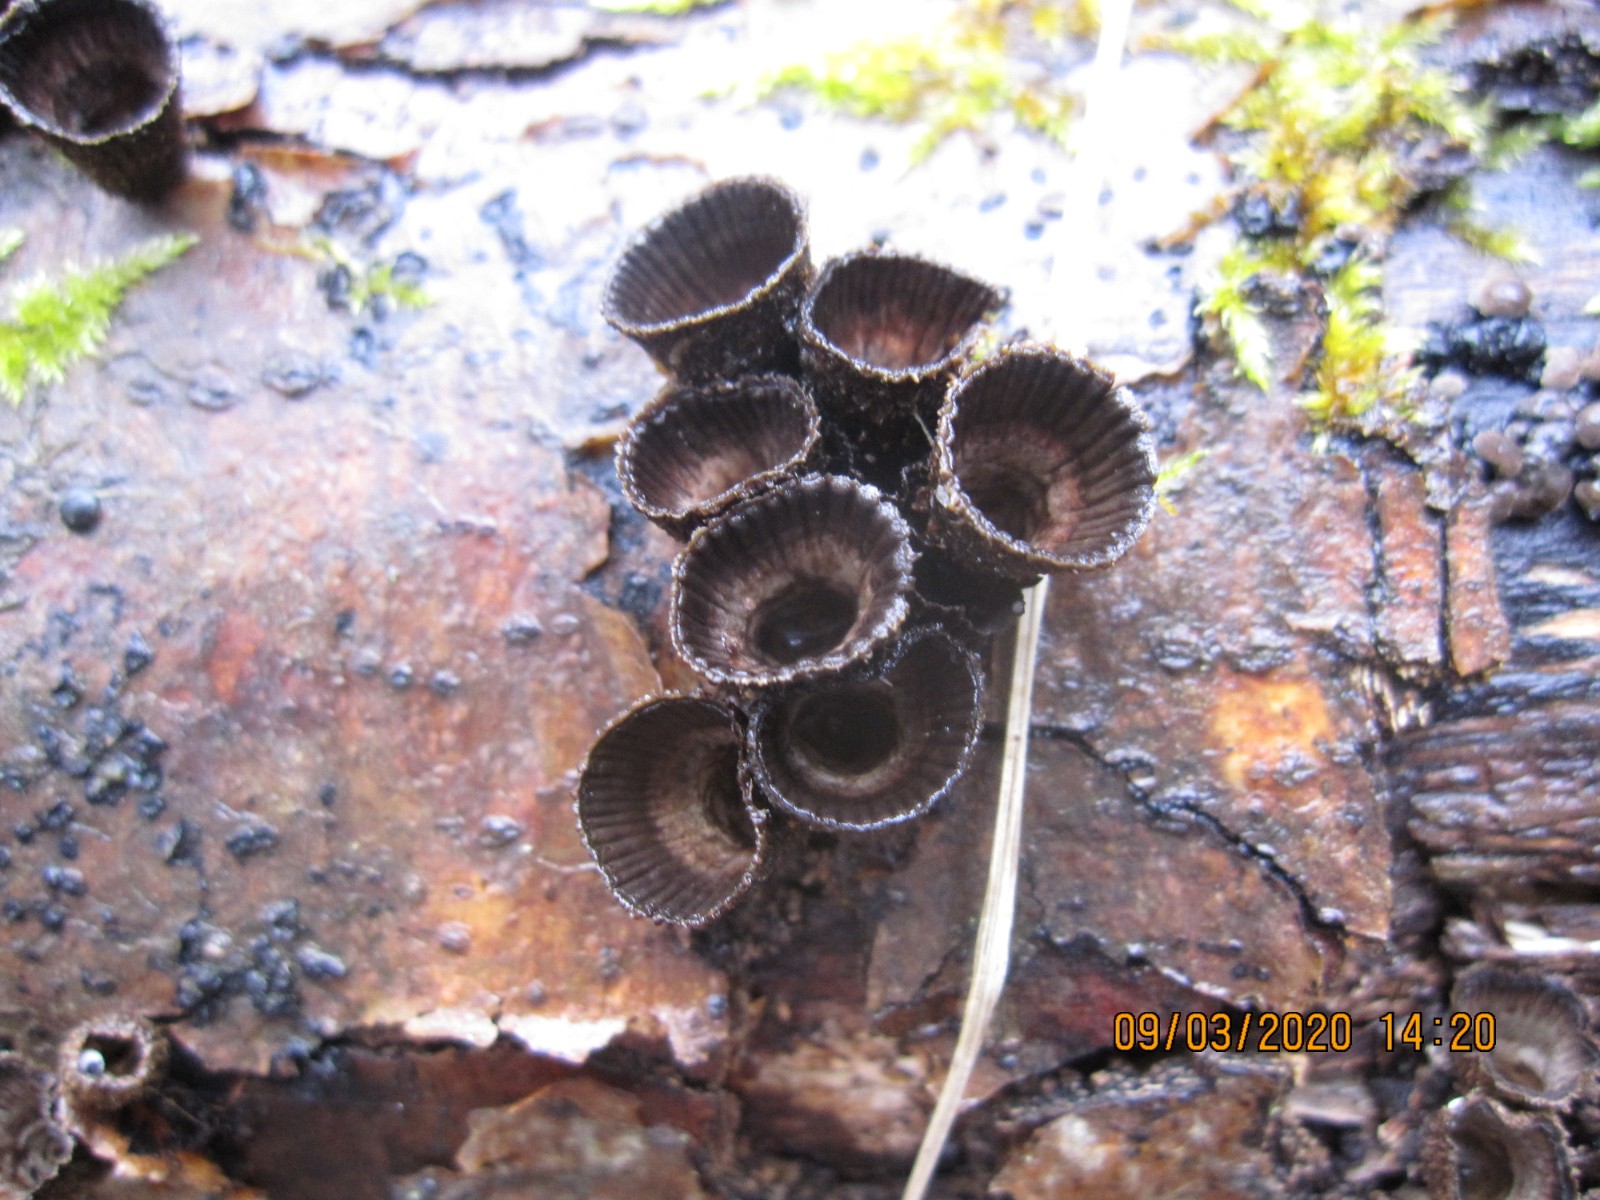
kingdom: Fungi
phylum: Basidiomycota
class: Agaricomycetes
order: Agaricales
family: Agaricaceae
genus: Cyathus
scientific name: Cyathus striatus
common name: stribet redesvamp
